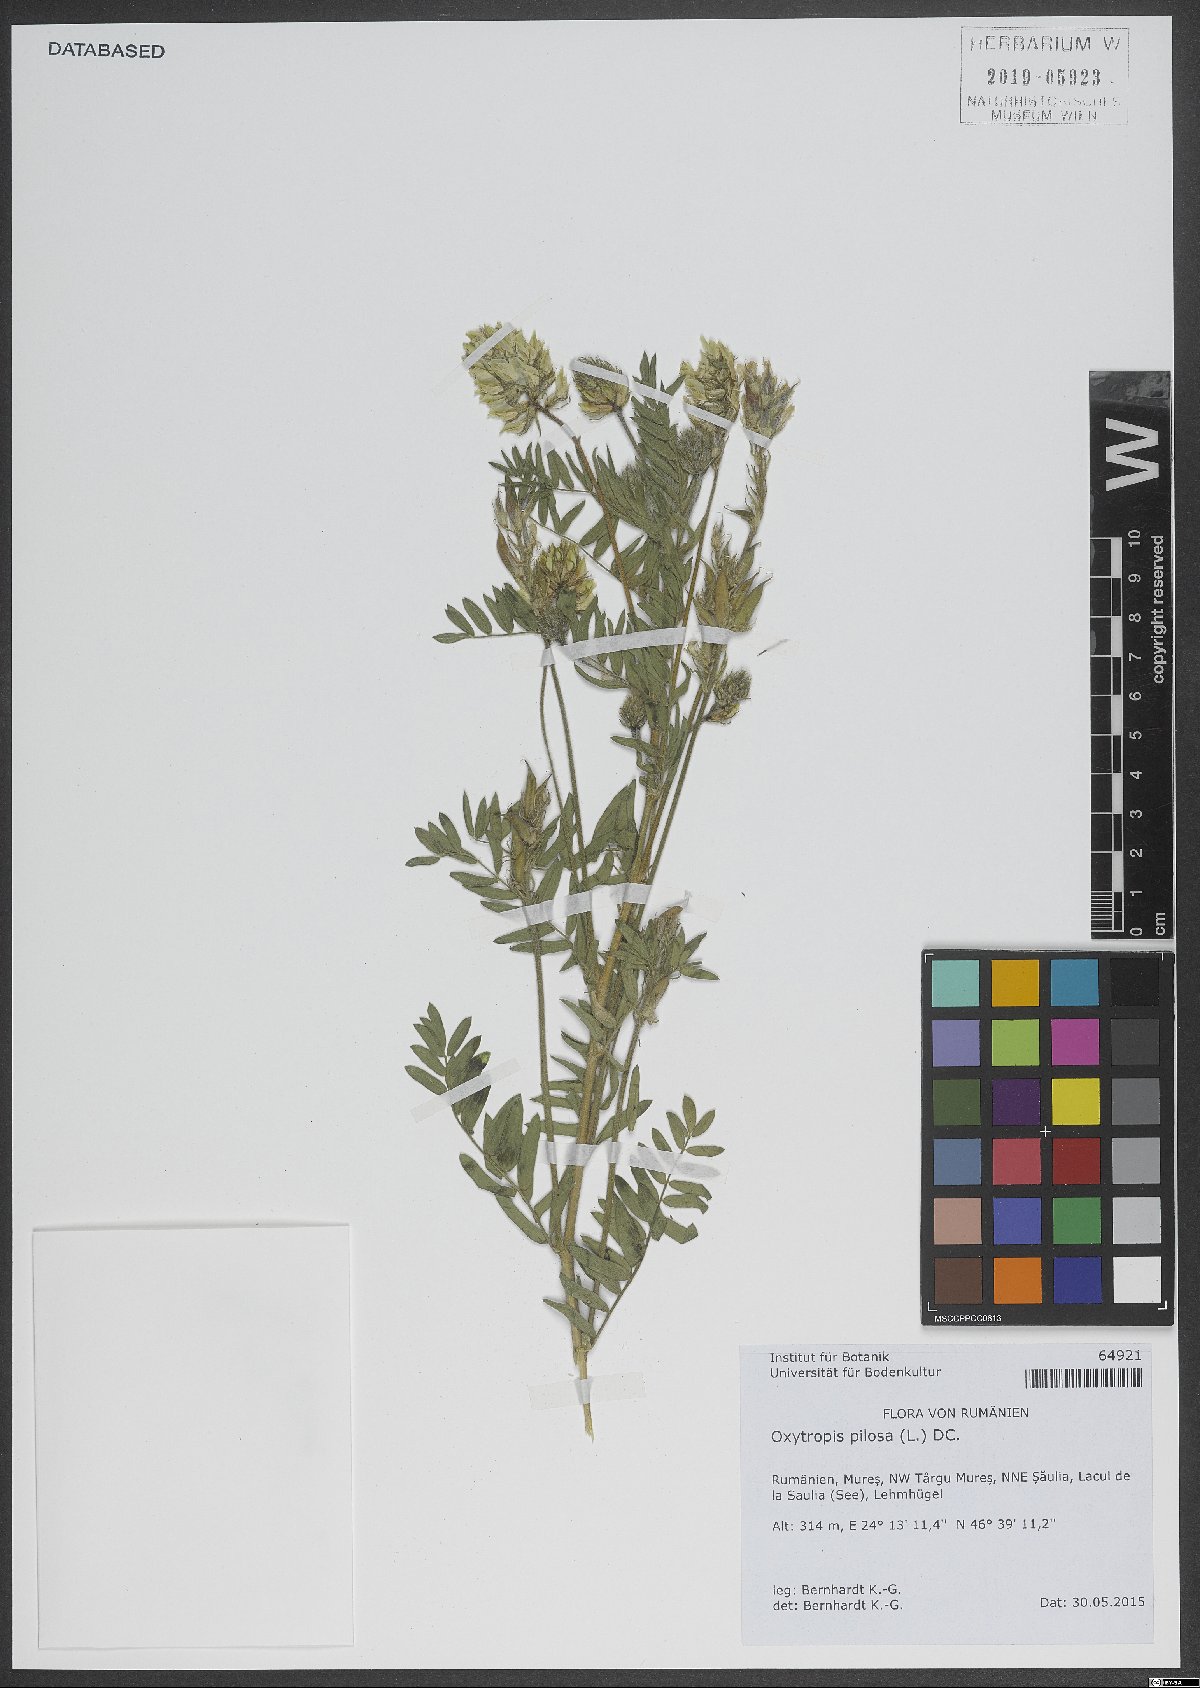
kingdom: Plantae
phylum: Tracheophyta
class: Magnoliopsida
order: Fabales
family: Fabaceae
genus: Oxytropis
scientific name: Oxytropis pilosa
